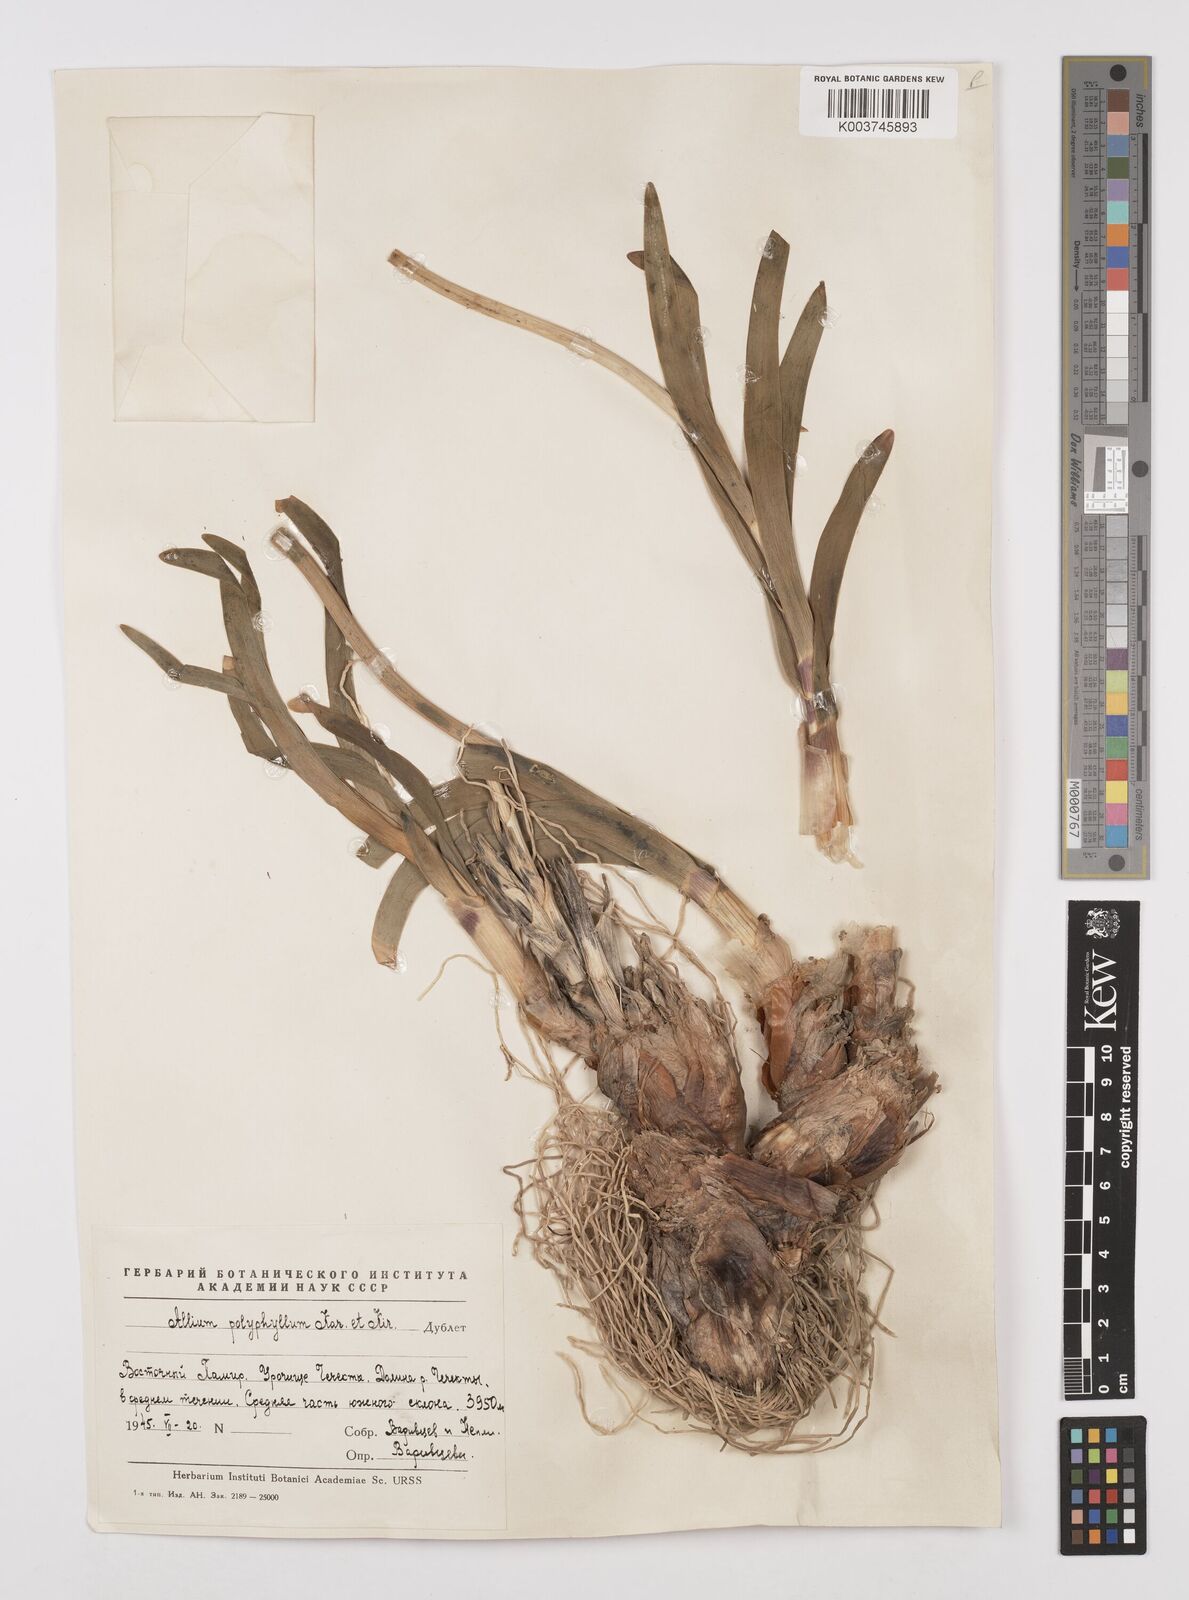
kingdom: Plantae
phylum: Tracheophyta
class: Liliopsida
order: Asparagales
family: Amaryllidaceae
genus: Allium
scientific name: Allium carolinianum
